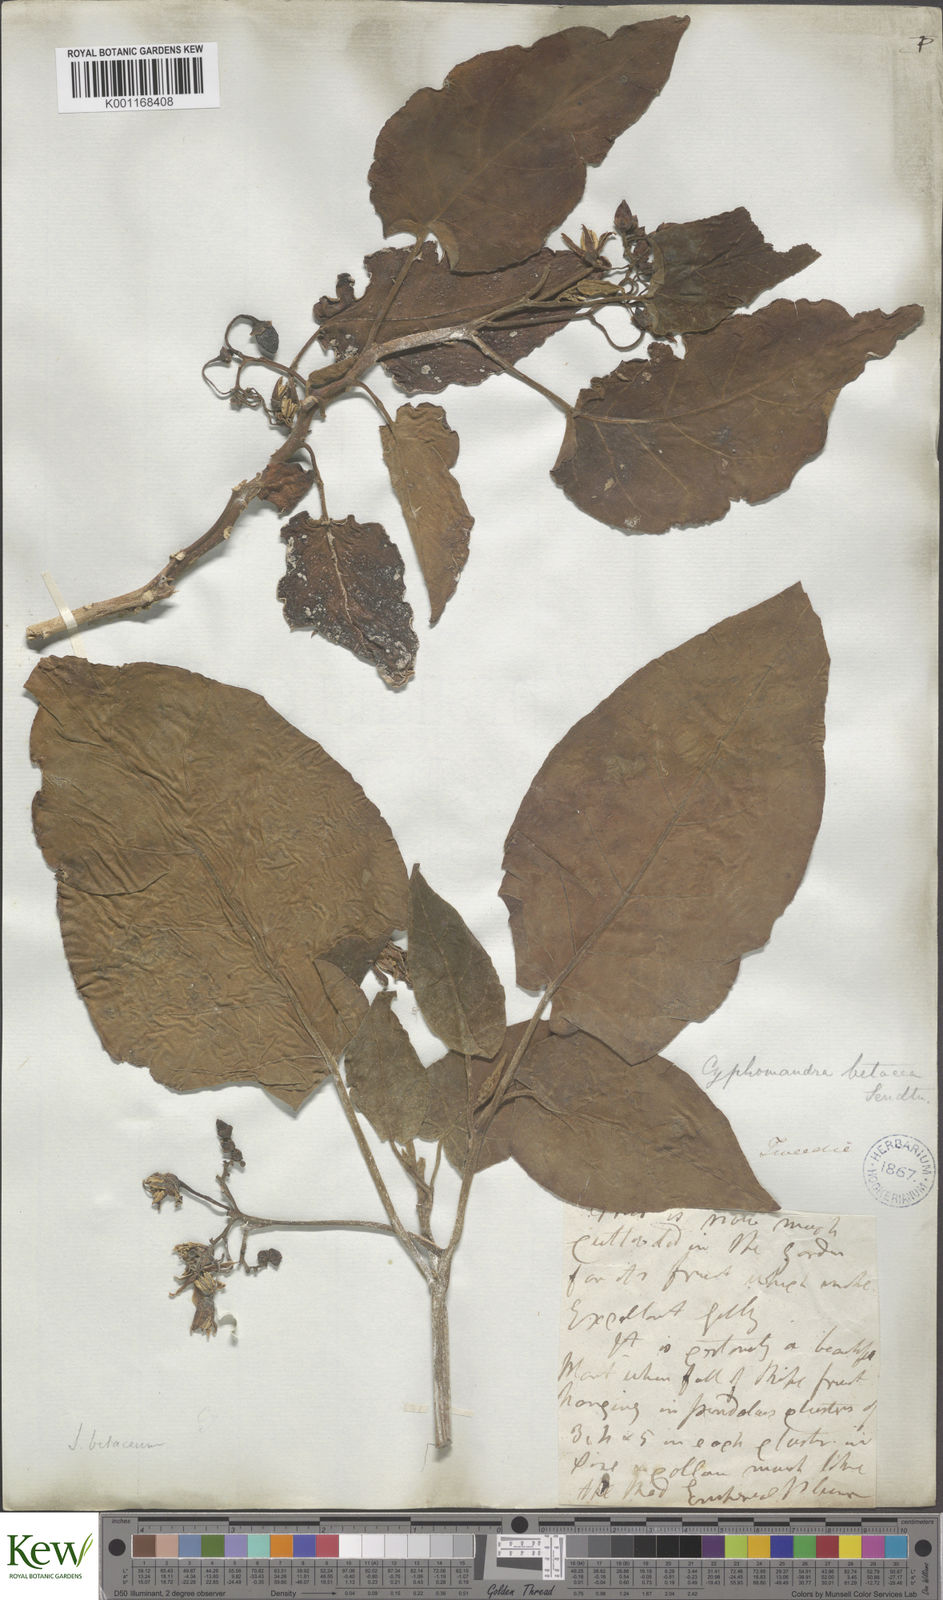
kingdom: Plantae
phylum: Tracheophyta
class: Magnoliopsida
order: Solanales
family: Solanaceae
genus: Solanum
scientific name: Solanum betaceum
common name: Tamarillo
